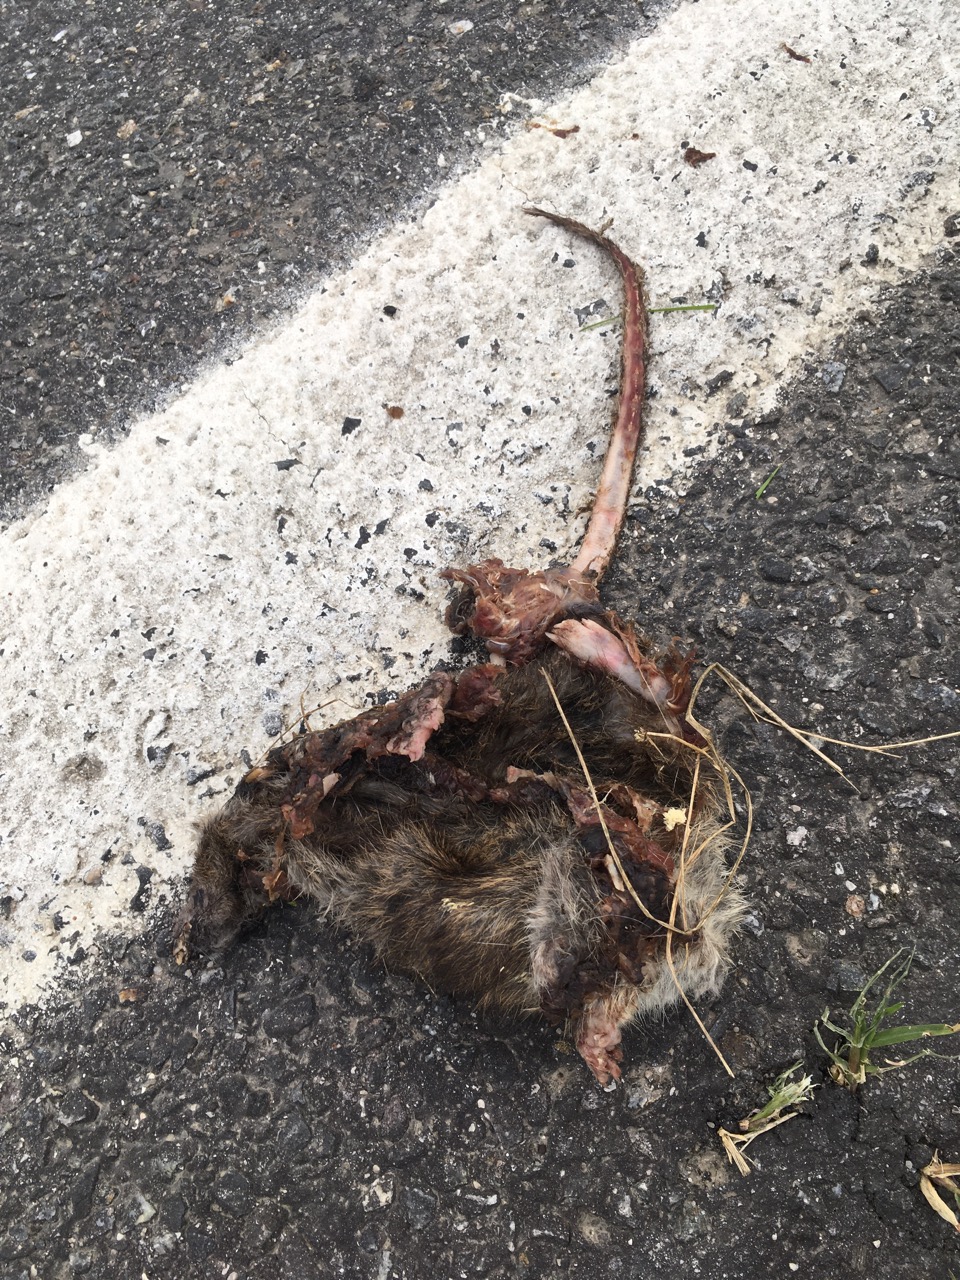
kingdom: Animalia
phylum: Chordata
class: Mammalia
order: Rodentia
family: Muridae
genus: Rattus
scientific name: Rattus
